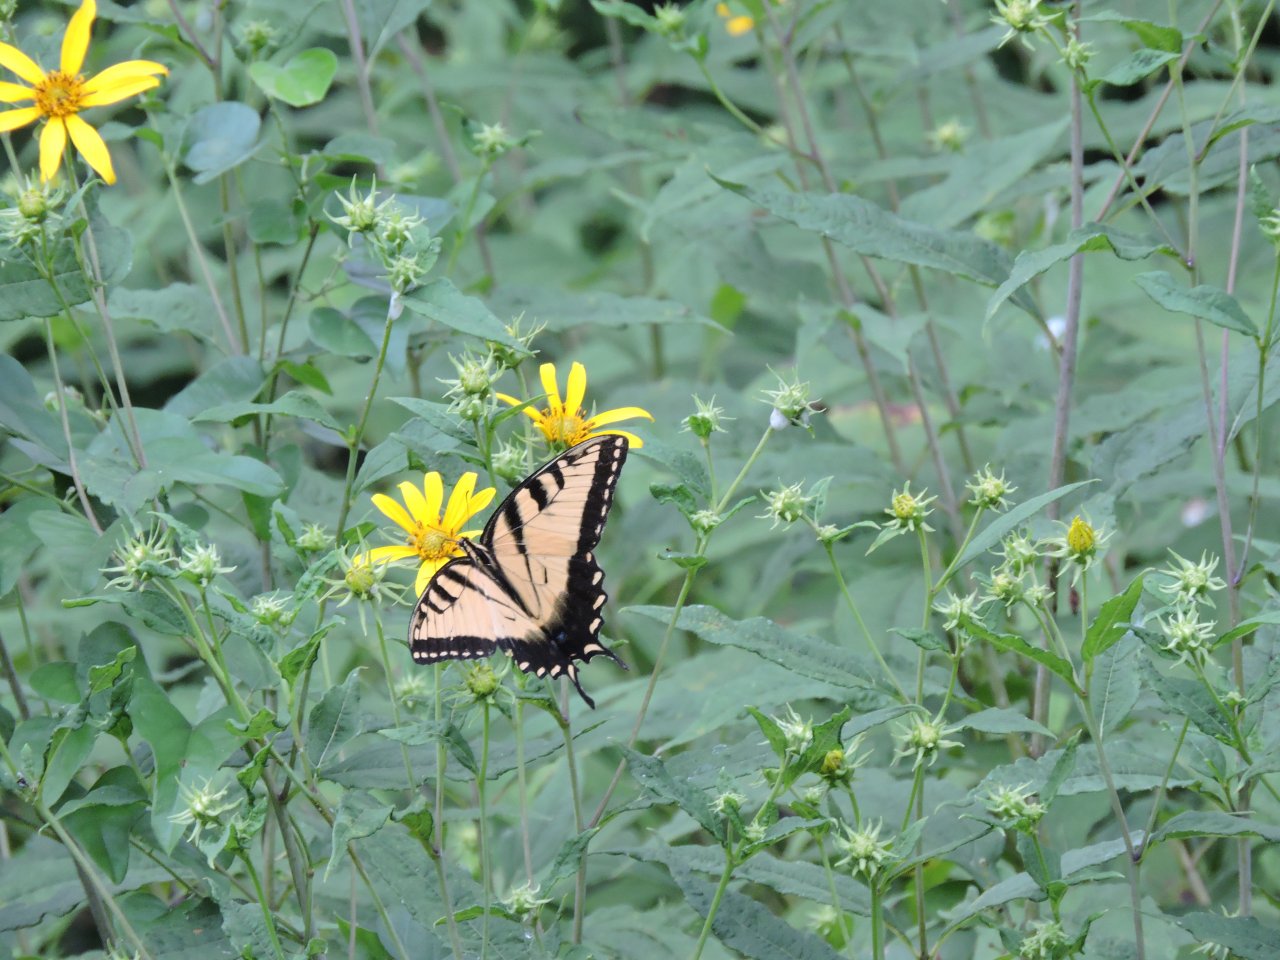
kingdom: Animalia
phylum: Arthropoda
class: Insecta
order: Lepidoptera
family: Papilionidae
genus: Pterourus
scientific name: Pterourus glaucus
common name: Eastern Tiger Swallowtail
